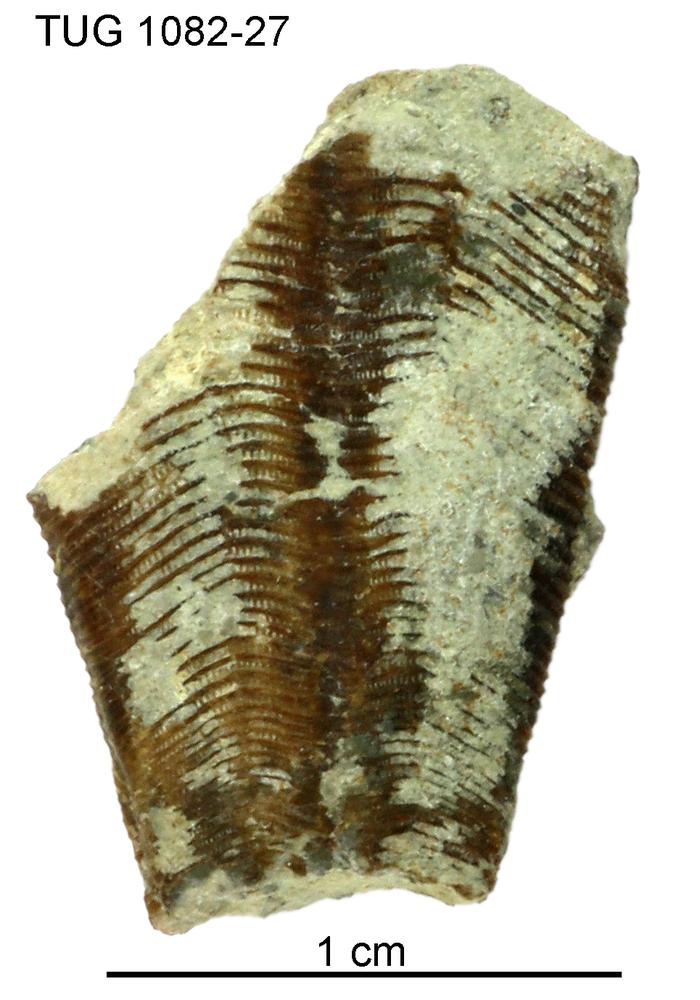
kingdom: Animalia
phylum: Cnidaria
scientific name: Cnidaria
